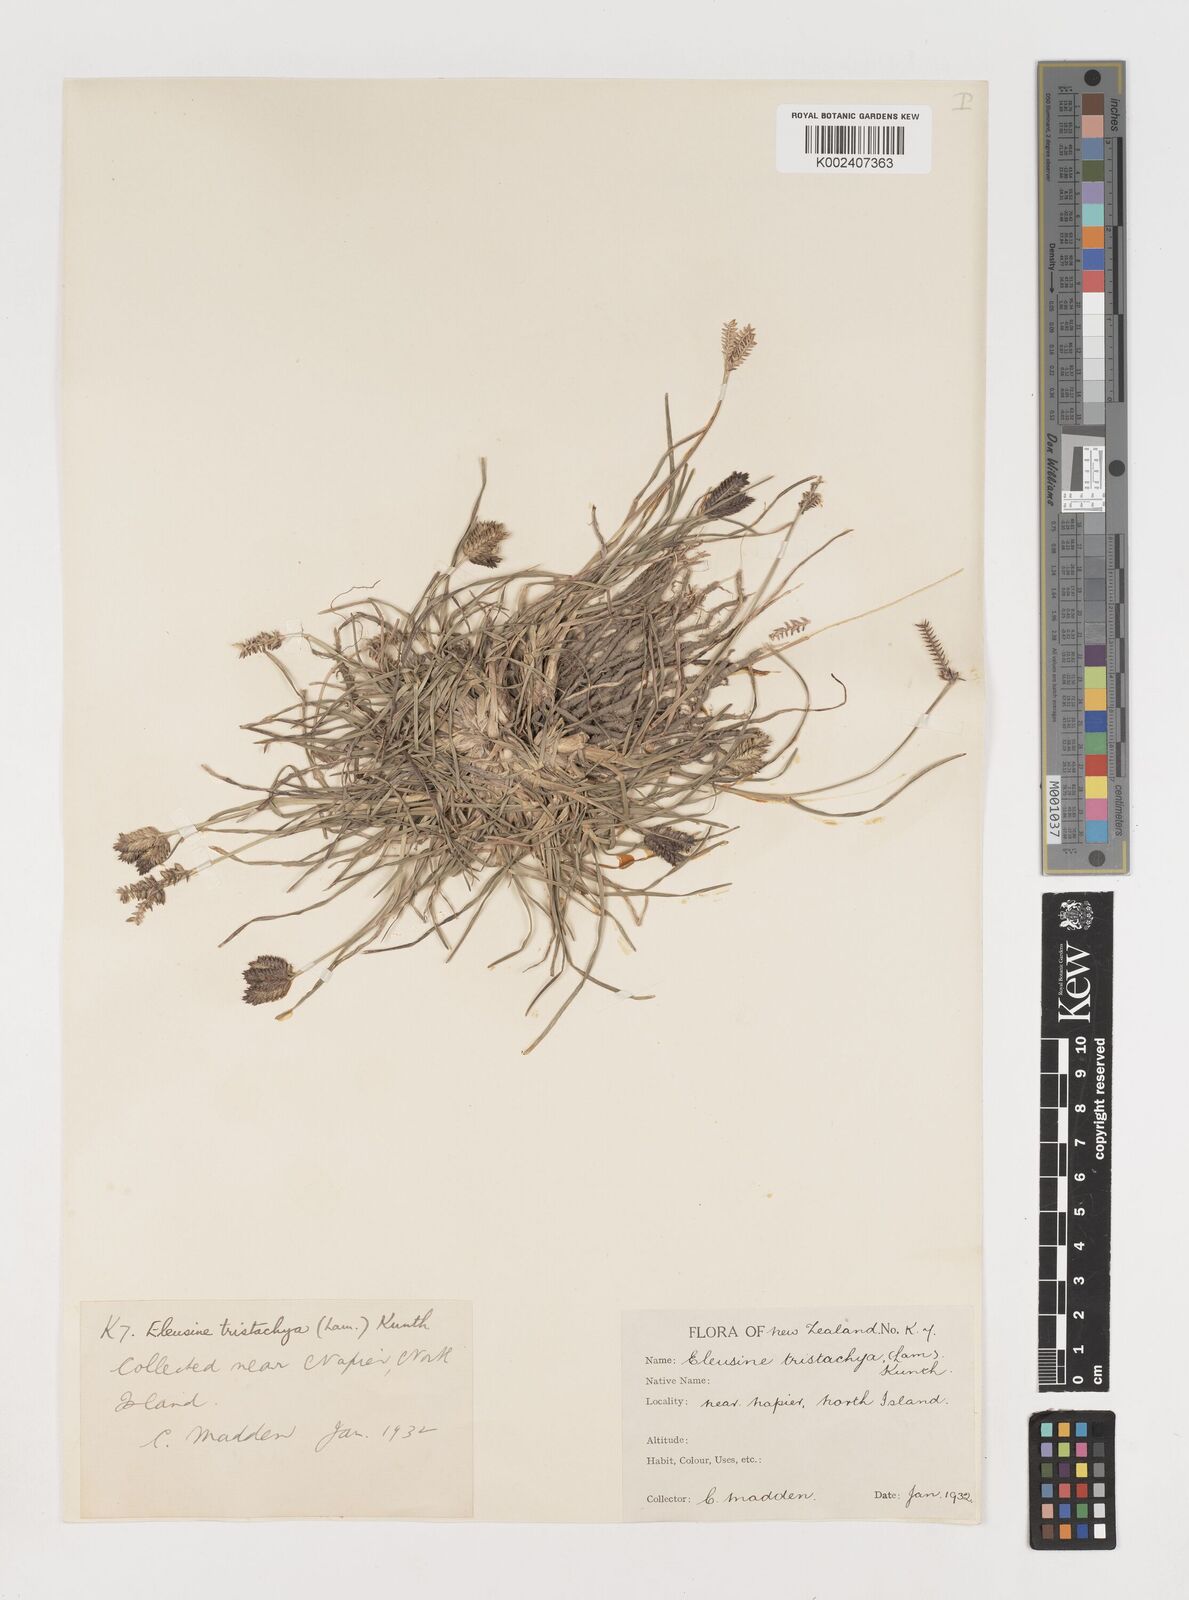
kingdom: Plantae
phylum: Tracheophyta
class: Liliopsida
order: Poales
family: Poaceae
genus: Eleusine
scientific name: Eleusine tristachya
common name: American yard-grass
